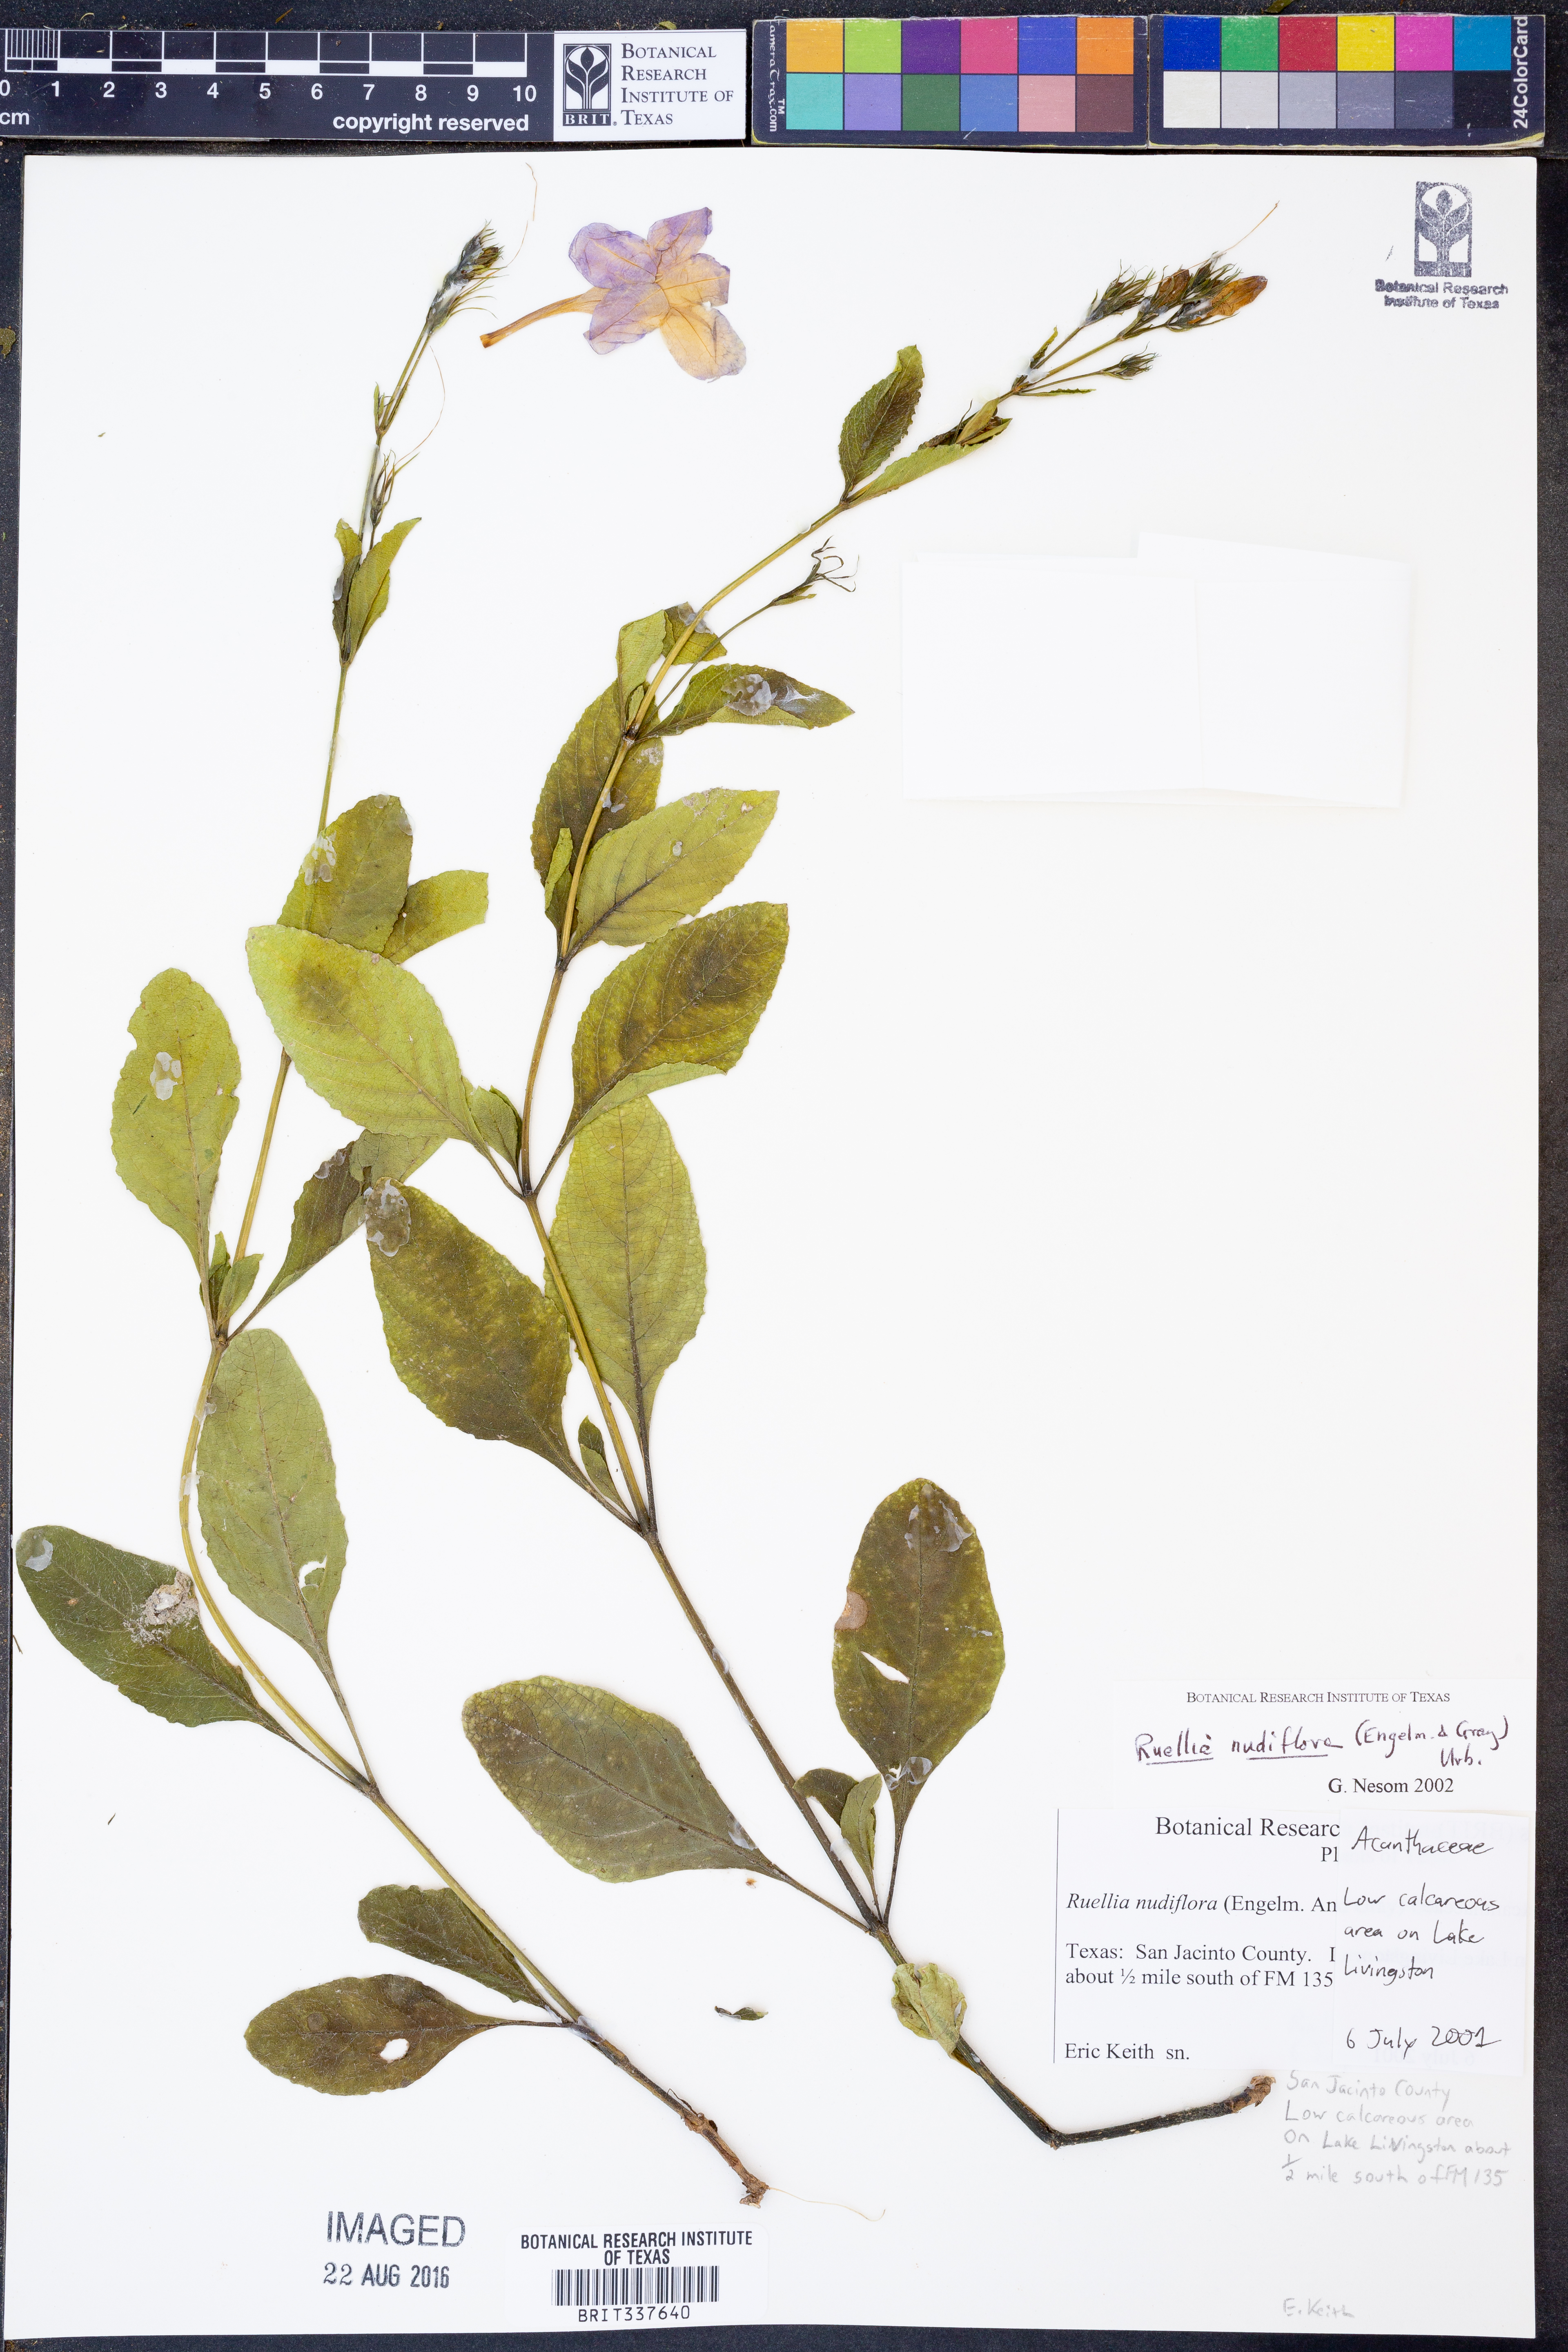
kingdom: Plantae
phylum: Tracheophyta
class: Magnoliopsida
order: Lamiales
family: Acanthaceae
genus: Ruellia
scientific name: Ruellia ciliatiflora
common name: Hairyflower wild petunia
